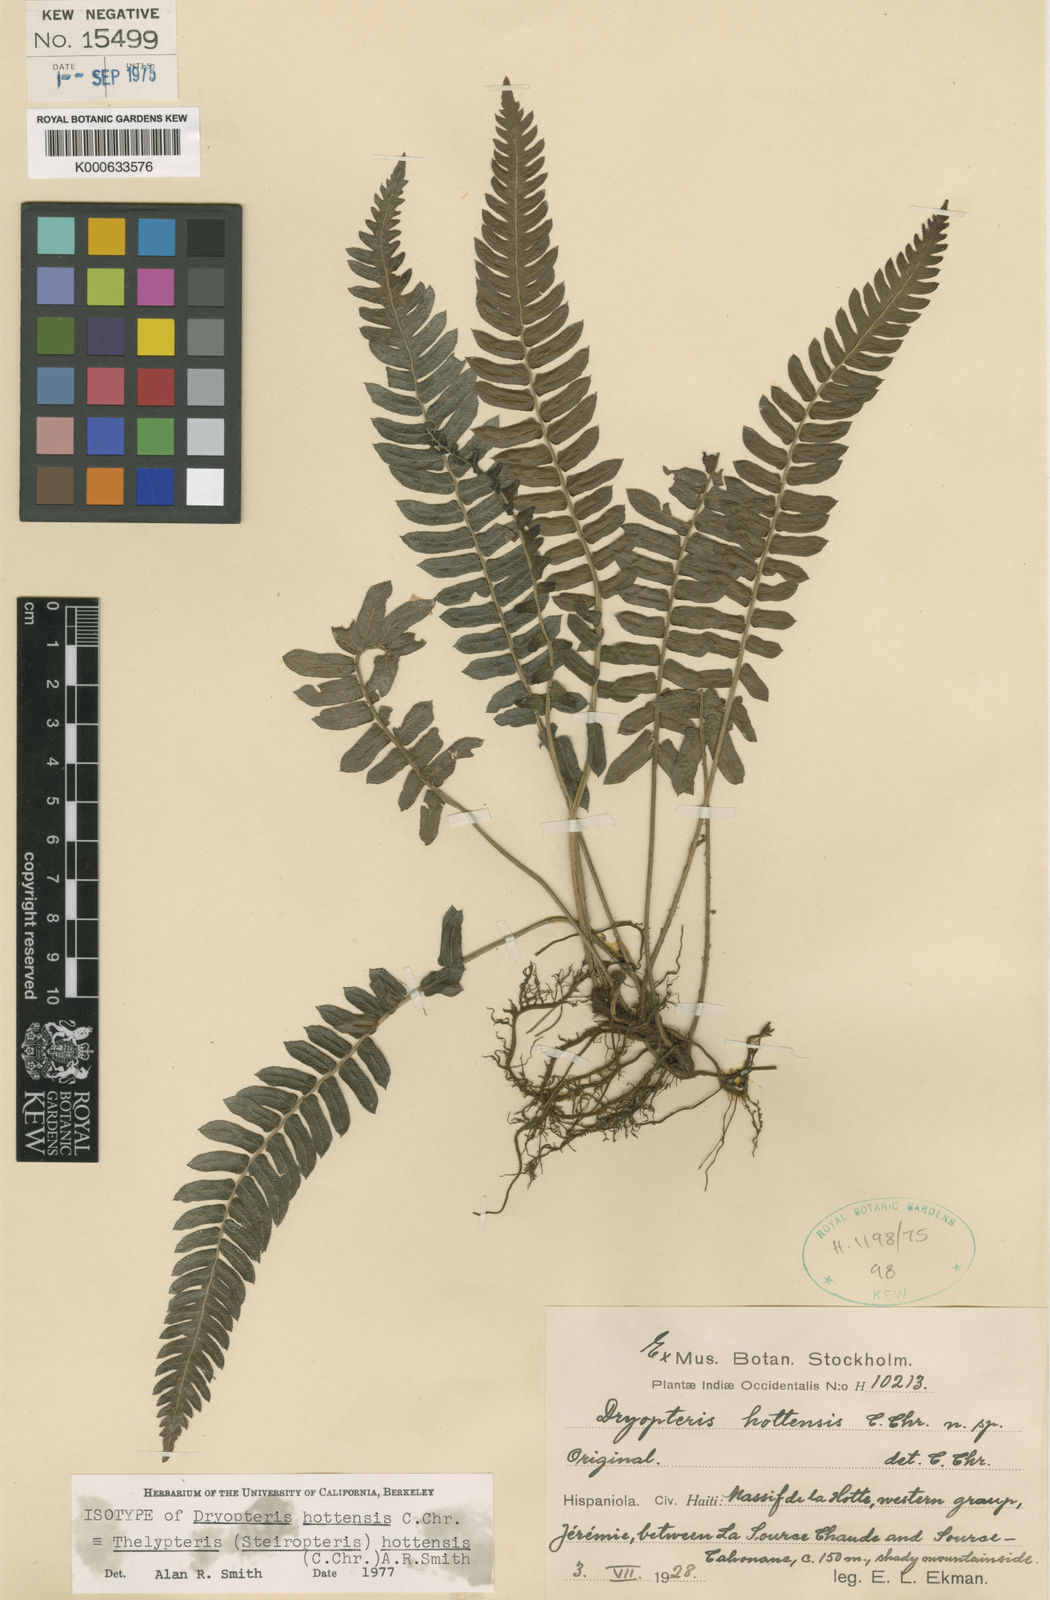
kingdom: Plantae
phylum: Tracheophyta
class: Polypodiopsida
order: Polypodiales
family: Thelypteridaceae
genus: Steiropteris
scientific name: Steiropteris hottensis
